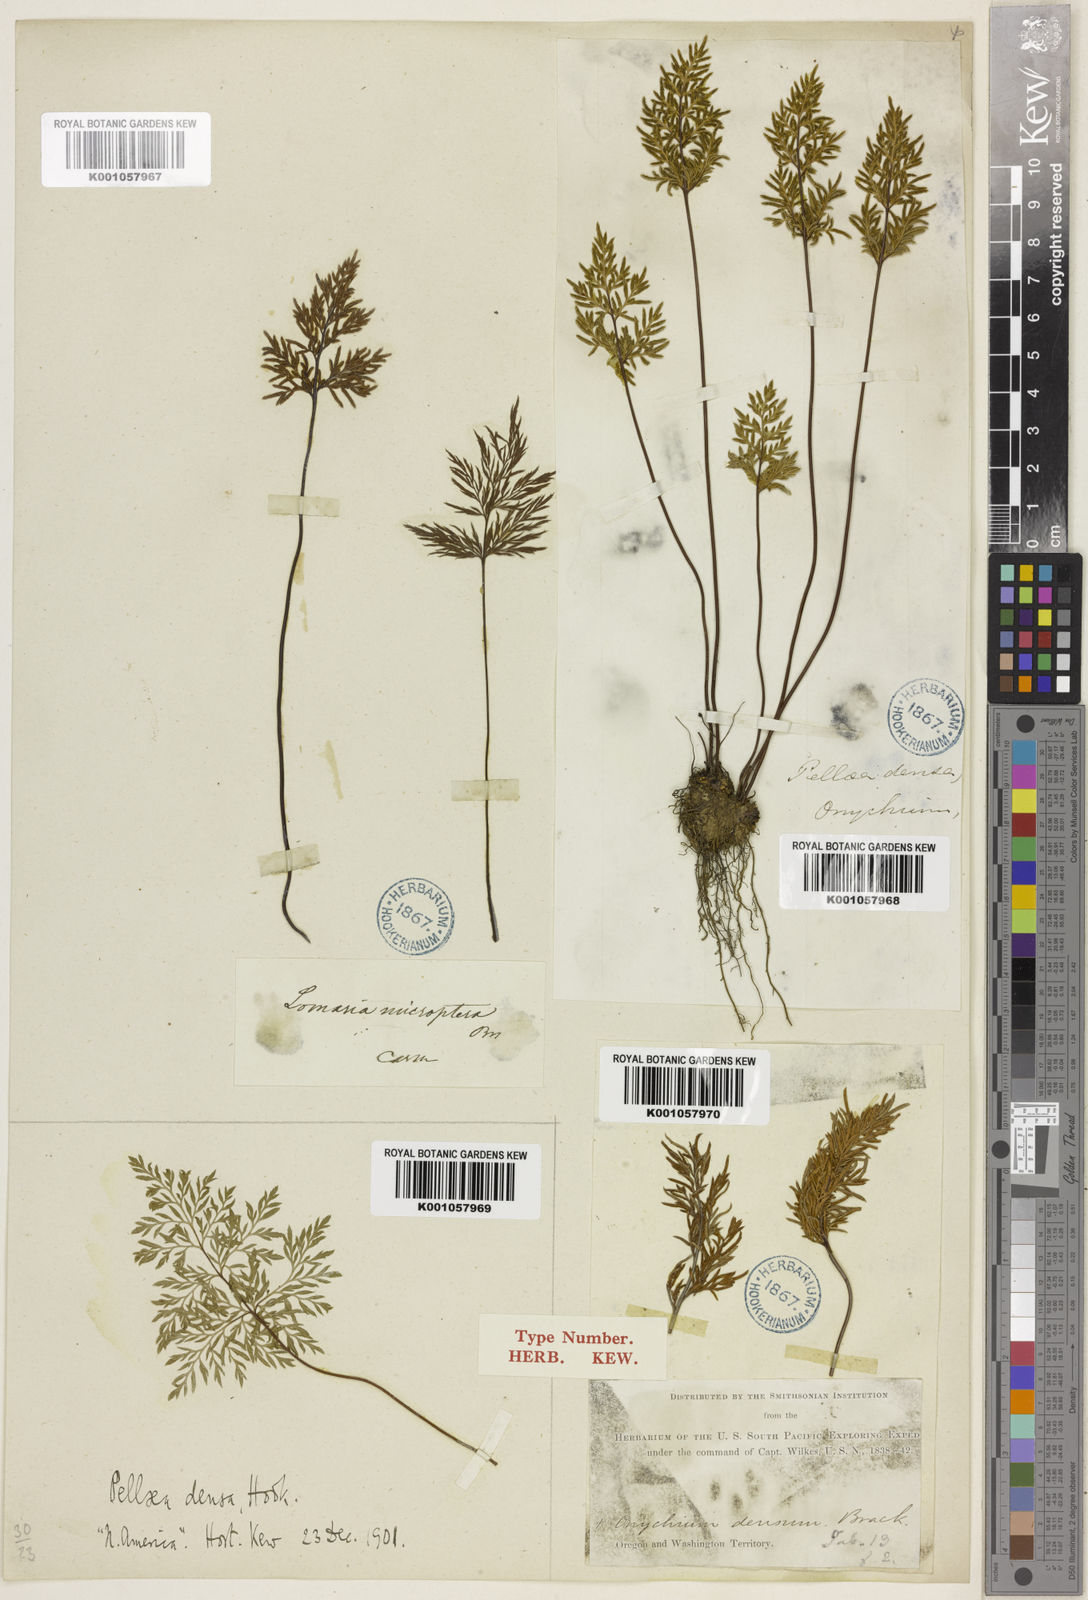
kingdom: Plantae
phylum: Tracheophyta
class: Polypodiopsida
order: Polypodiales
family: Pteridaceae
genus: Aspidotis
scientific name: Aspidotis densa
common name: Indian's dream
